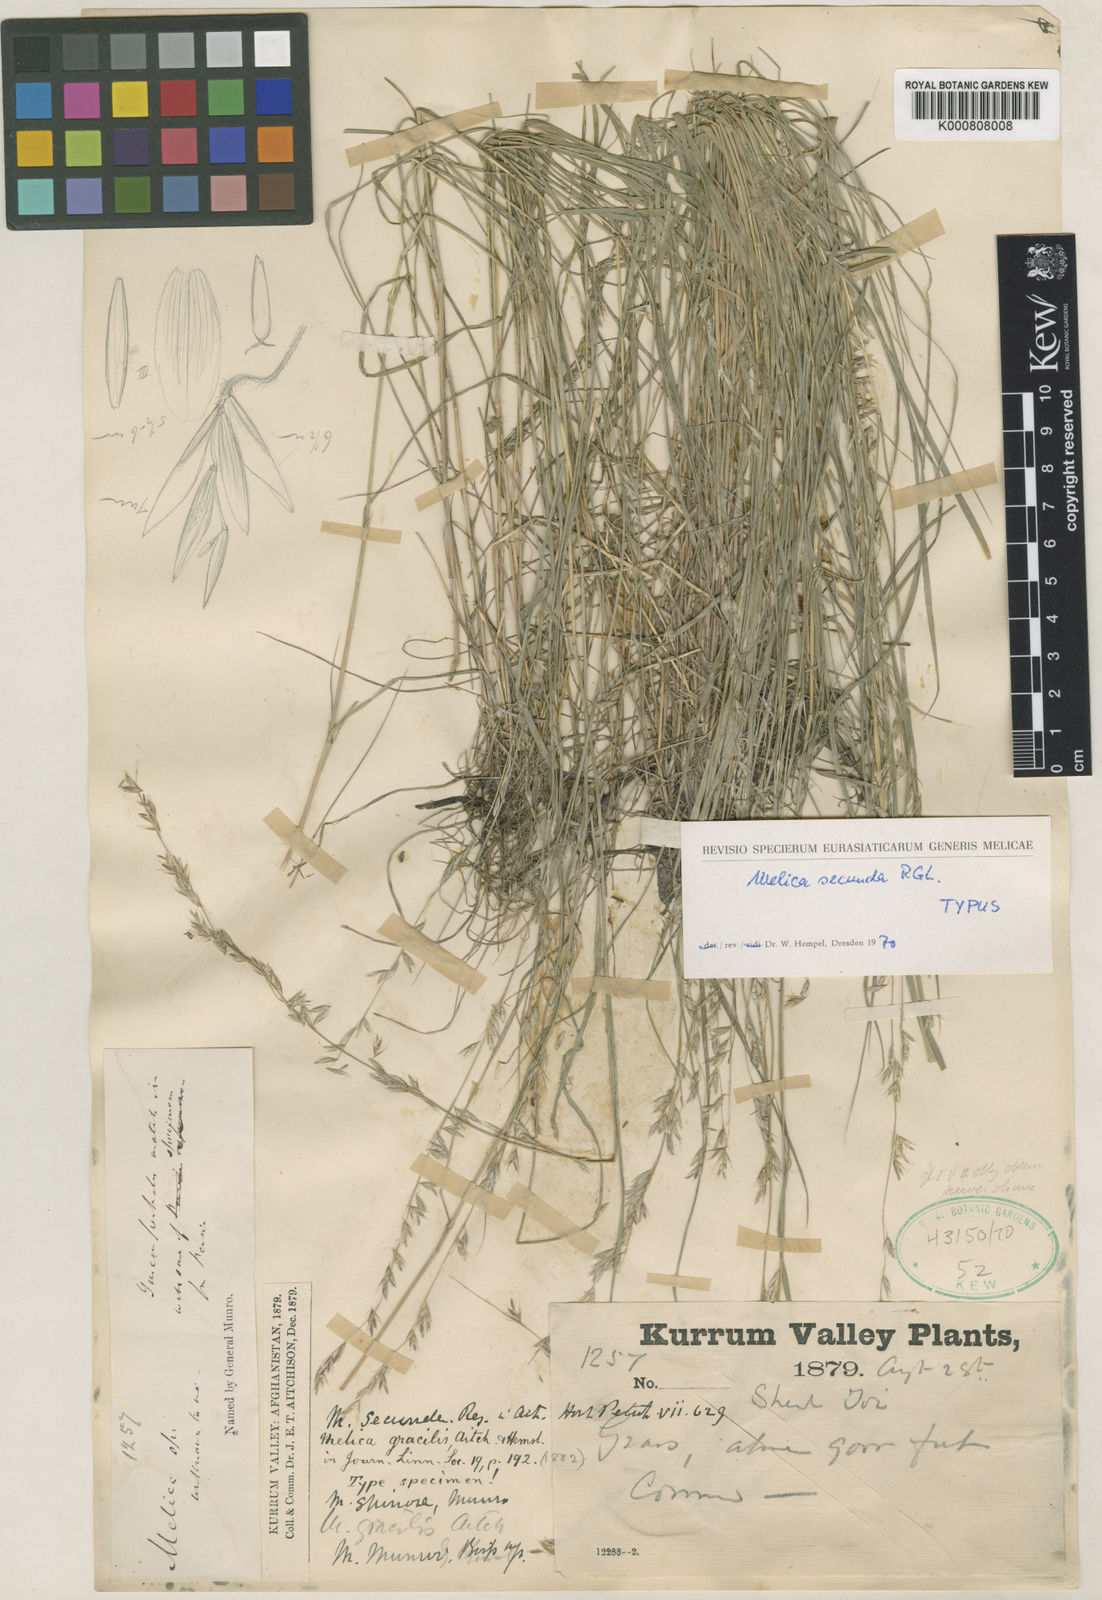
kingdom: Plantae
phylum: Tracheophyta
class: Liliopsida
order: Poales
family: Poaceae
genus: Melica
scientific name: Melica secunda
